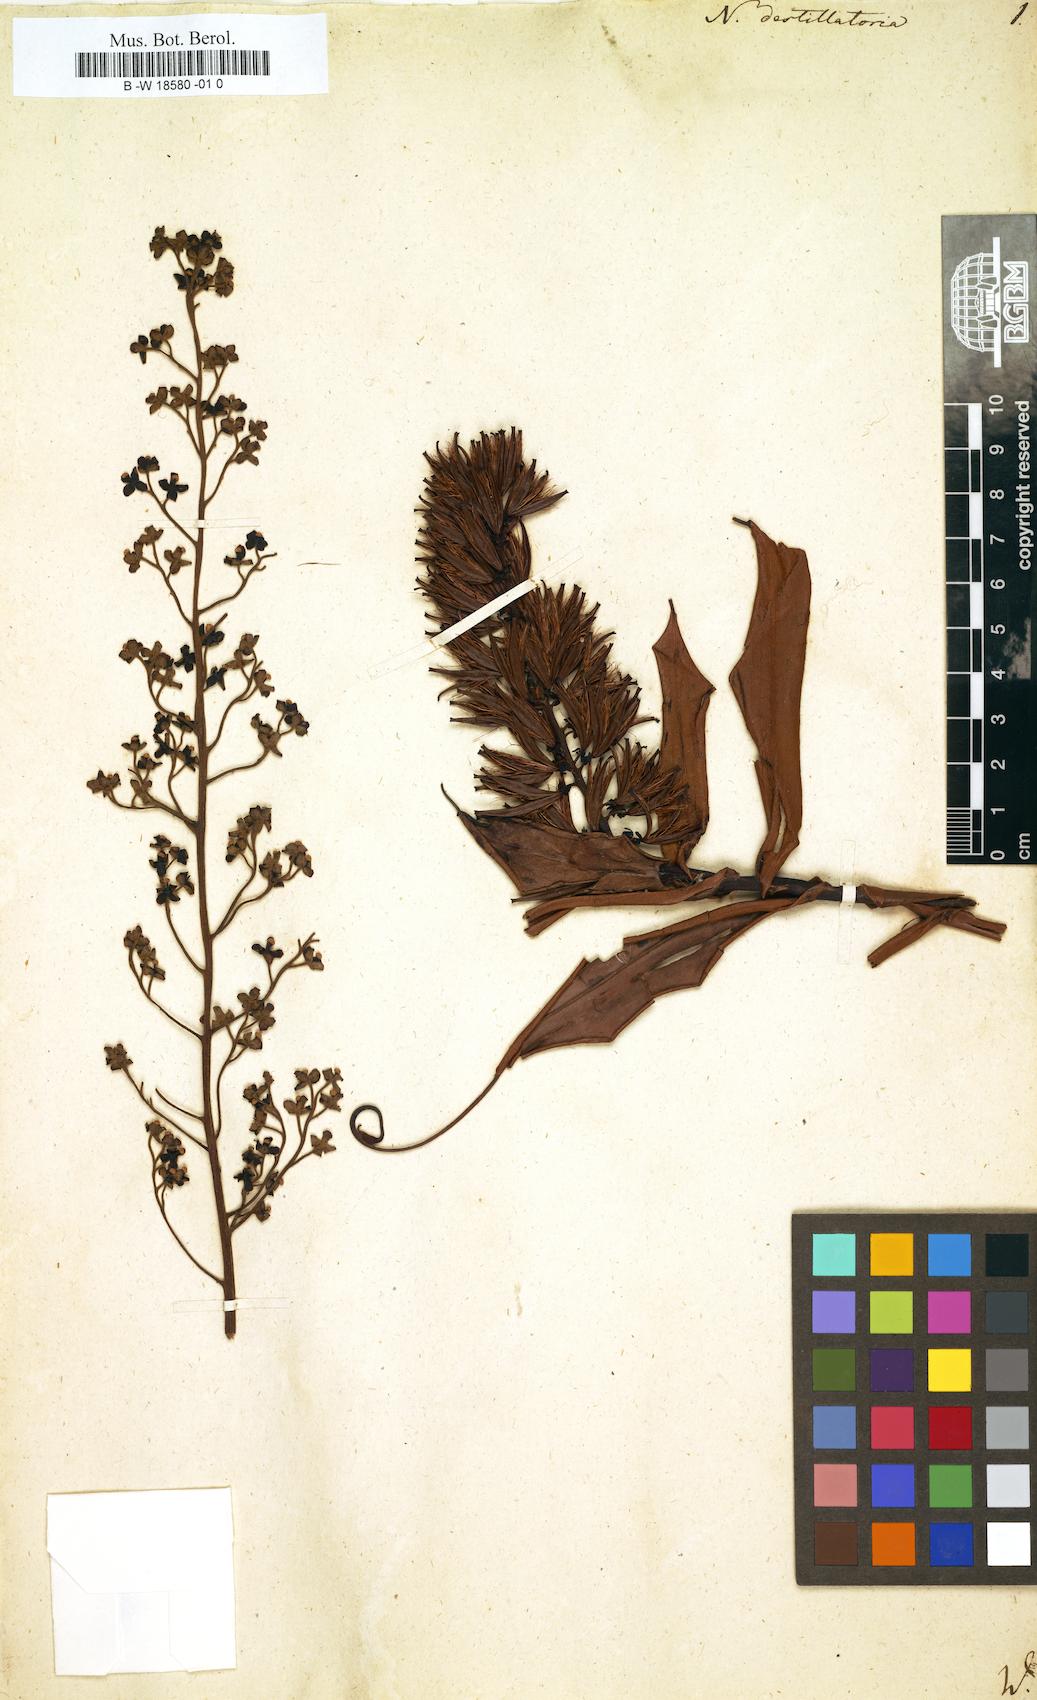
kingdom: Plantae
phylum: Tracheophyta
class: Magnoliopsida
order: Caryophyllales
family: Nepenthaceae
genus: Nepenthes
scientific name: Nepenthes distillatoria
